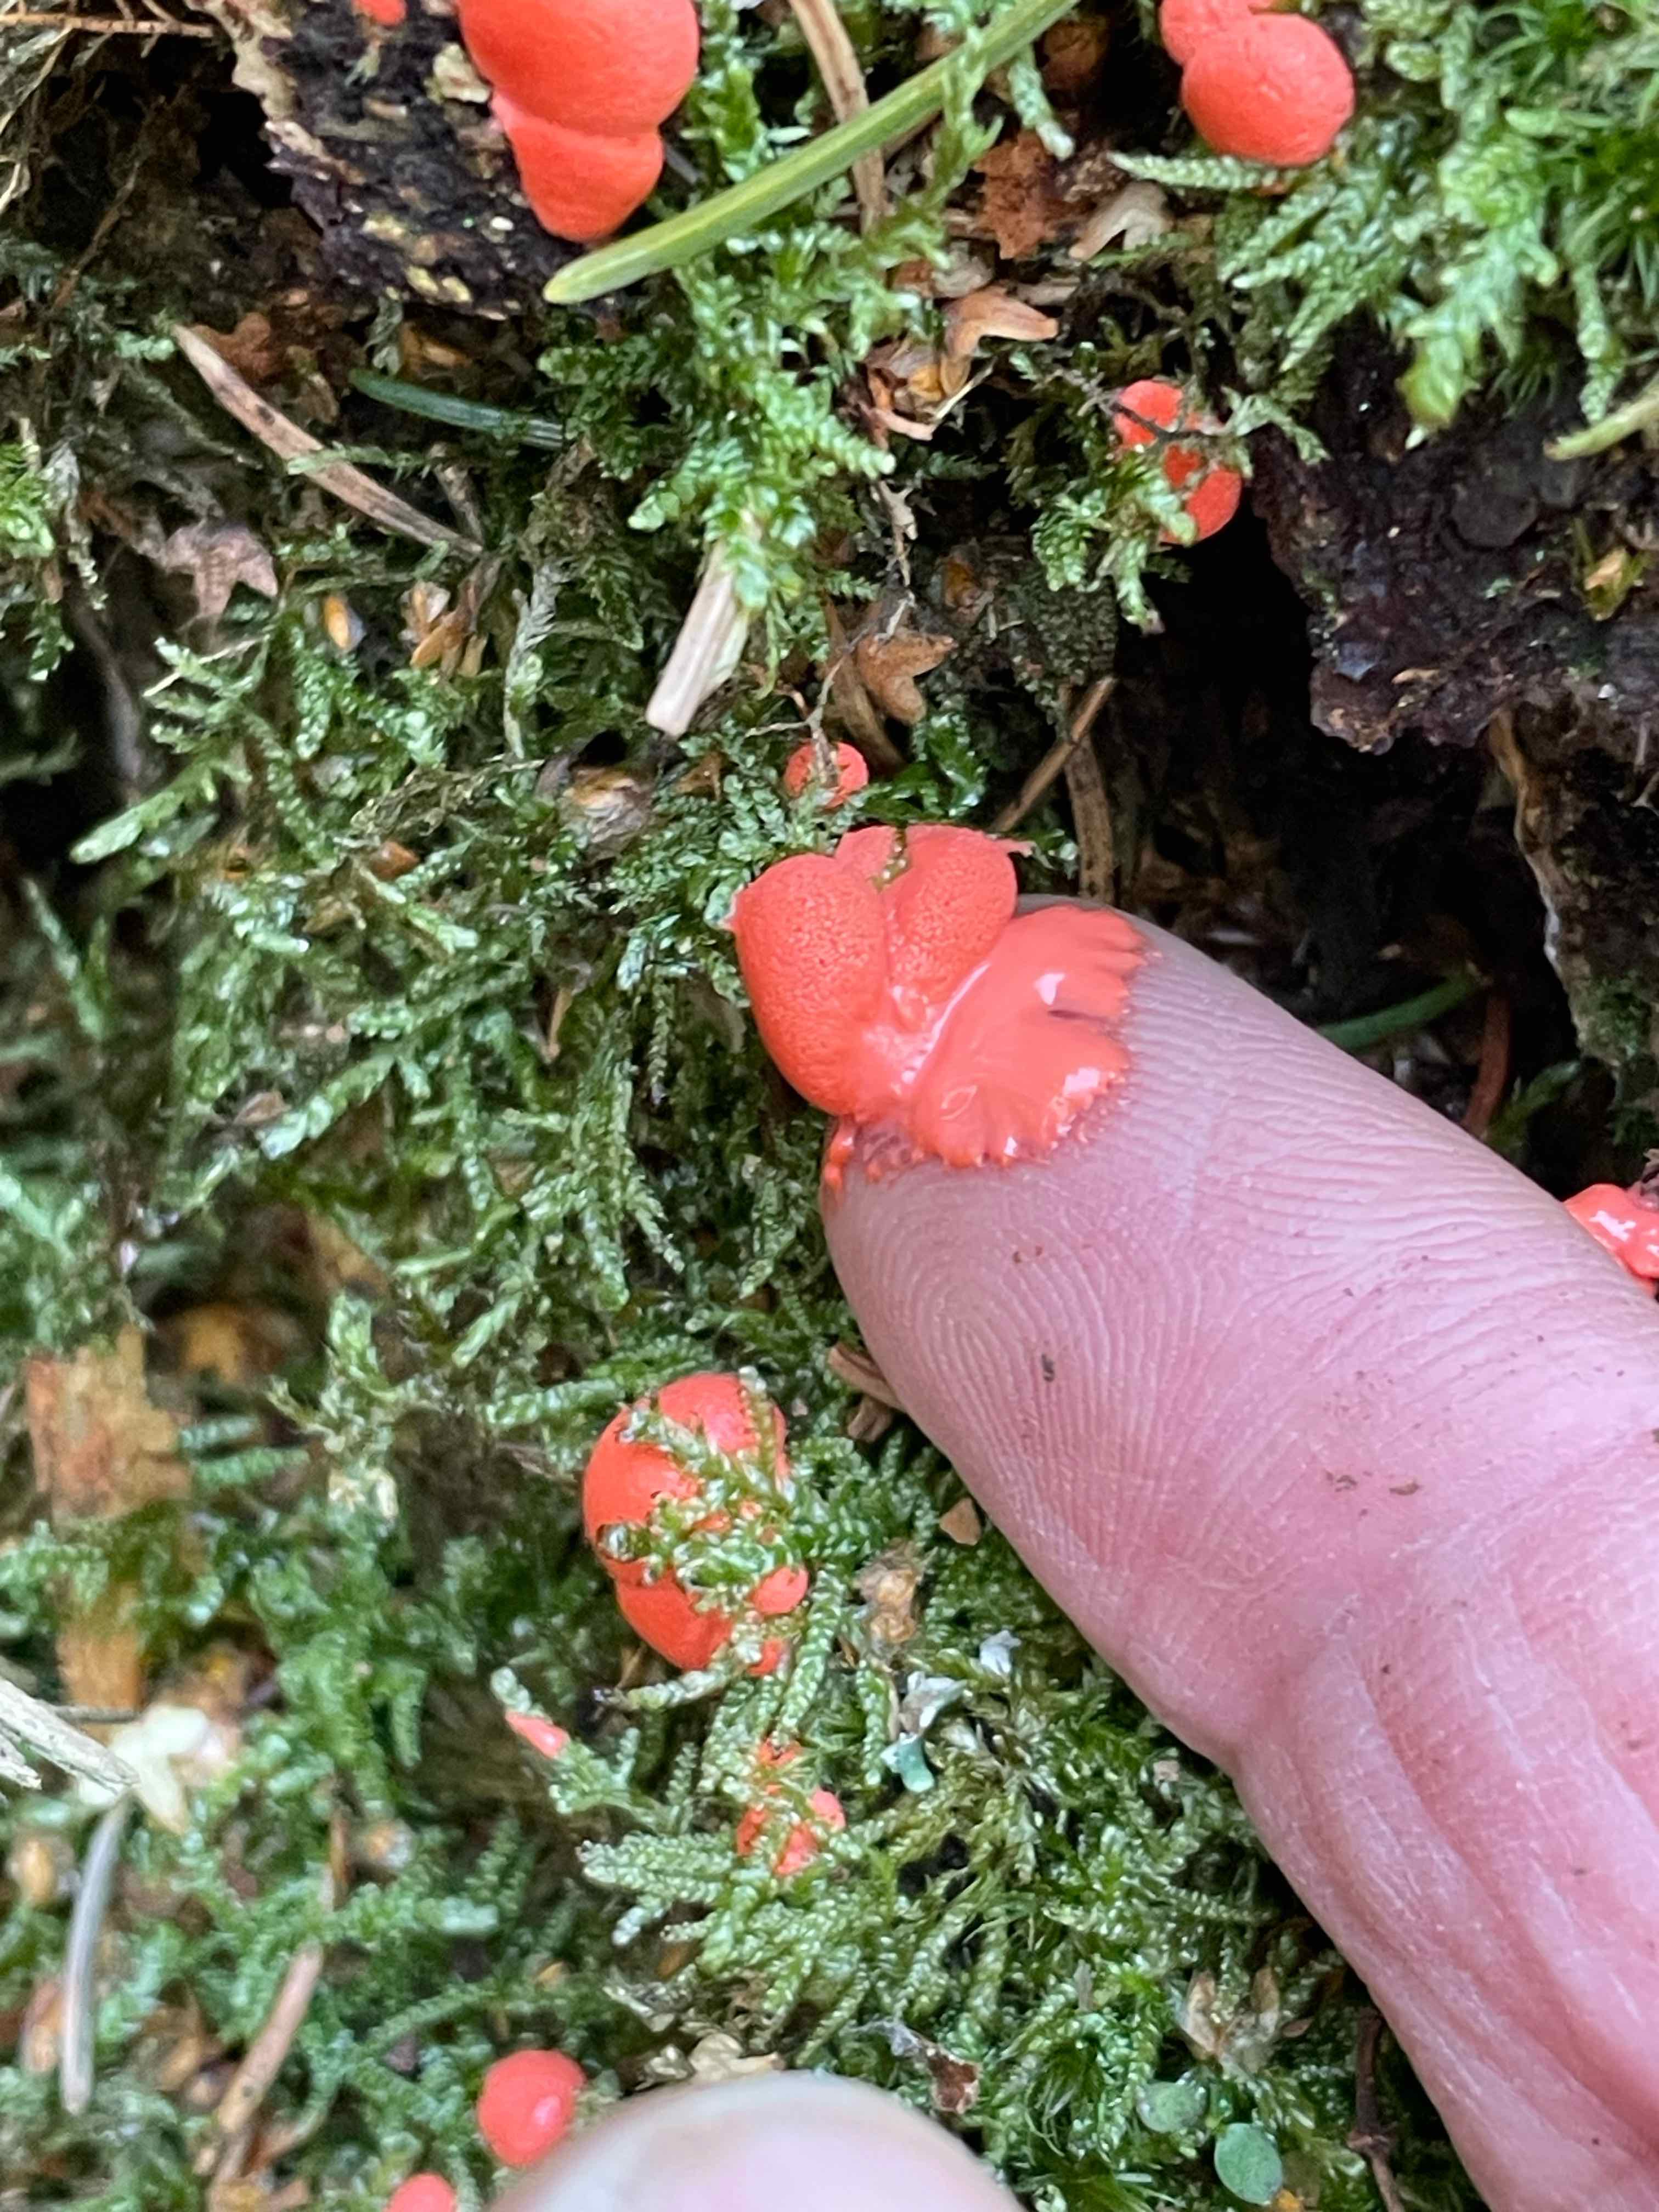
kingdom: Protozoa
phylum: Mycetozoa
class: Myxomycetes
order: Cribrariales
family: Tubiferaceae
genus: Lycogala
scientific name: Lycogala
